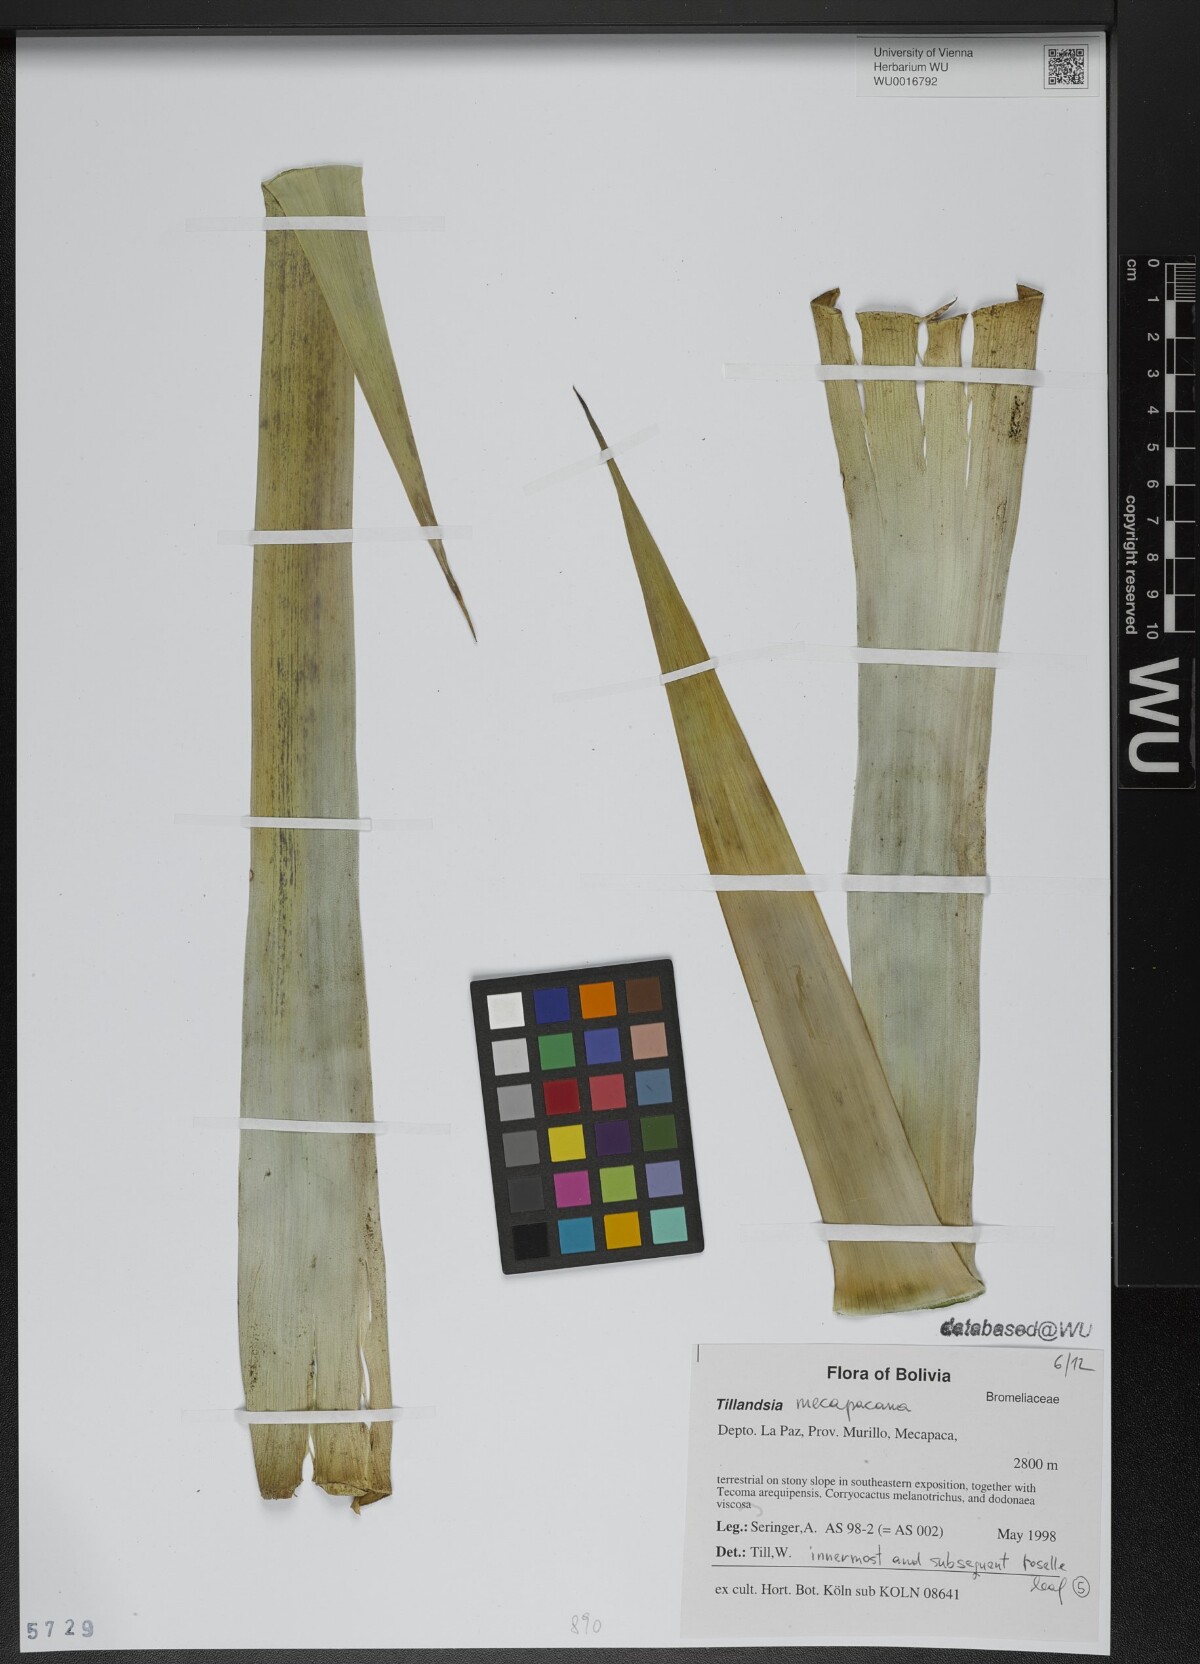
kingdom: Plantae
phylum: Tracheophyta
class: Liliopsida
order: Poales
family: Bromeliaceae
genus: Tillandsia
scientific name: Tillandsia
